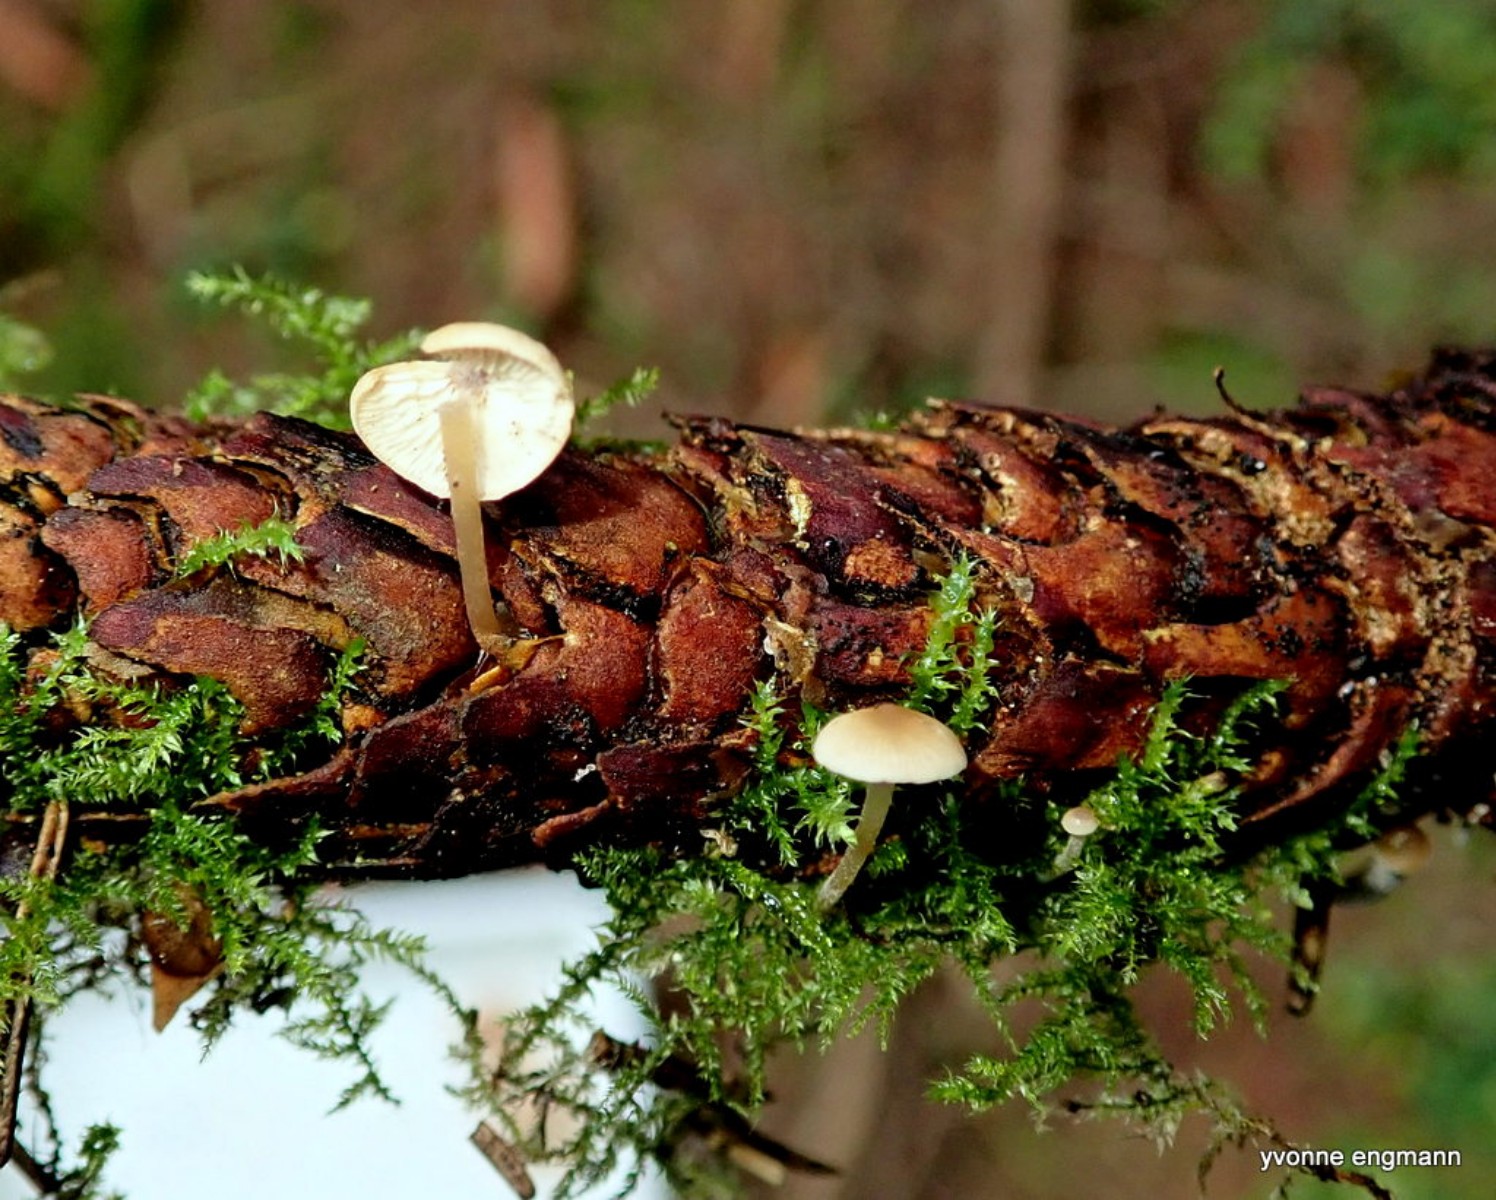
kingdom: Fungi
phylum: Basidiomycota
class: Agaricomycetes
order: Agaricales
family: Physalacriaceae
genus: Strobilurus
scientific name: Strobilurus esculentus
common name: gran-koglehat
